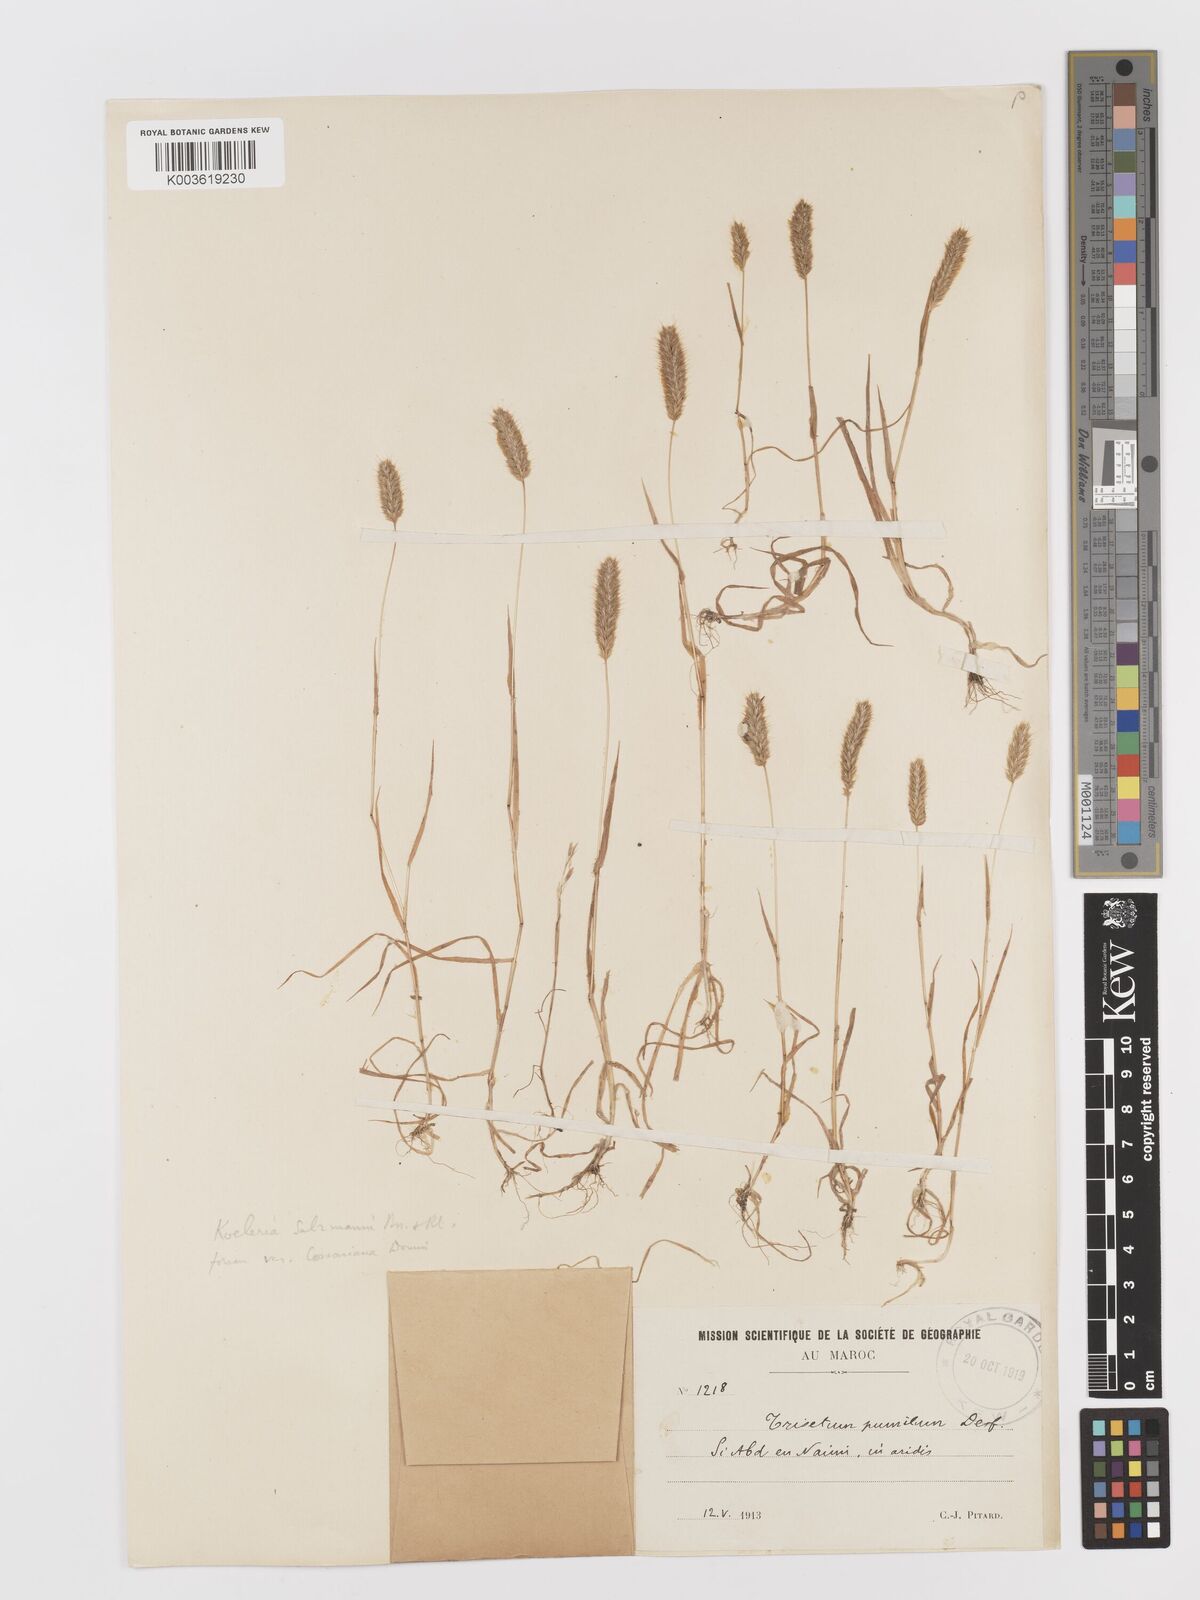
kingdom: Plantae
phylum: Tracheophyta
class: Liliopsida
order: Poales
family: Poaceae
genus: Rostraria
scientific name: Rostraria salzmannii
